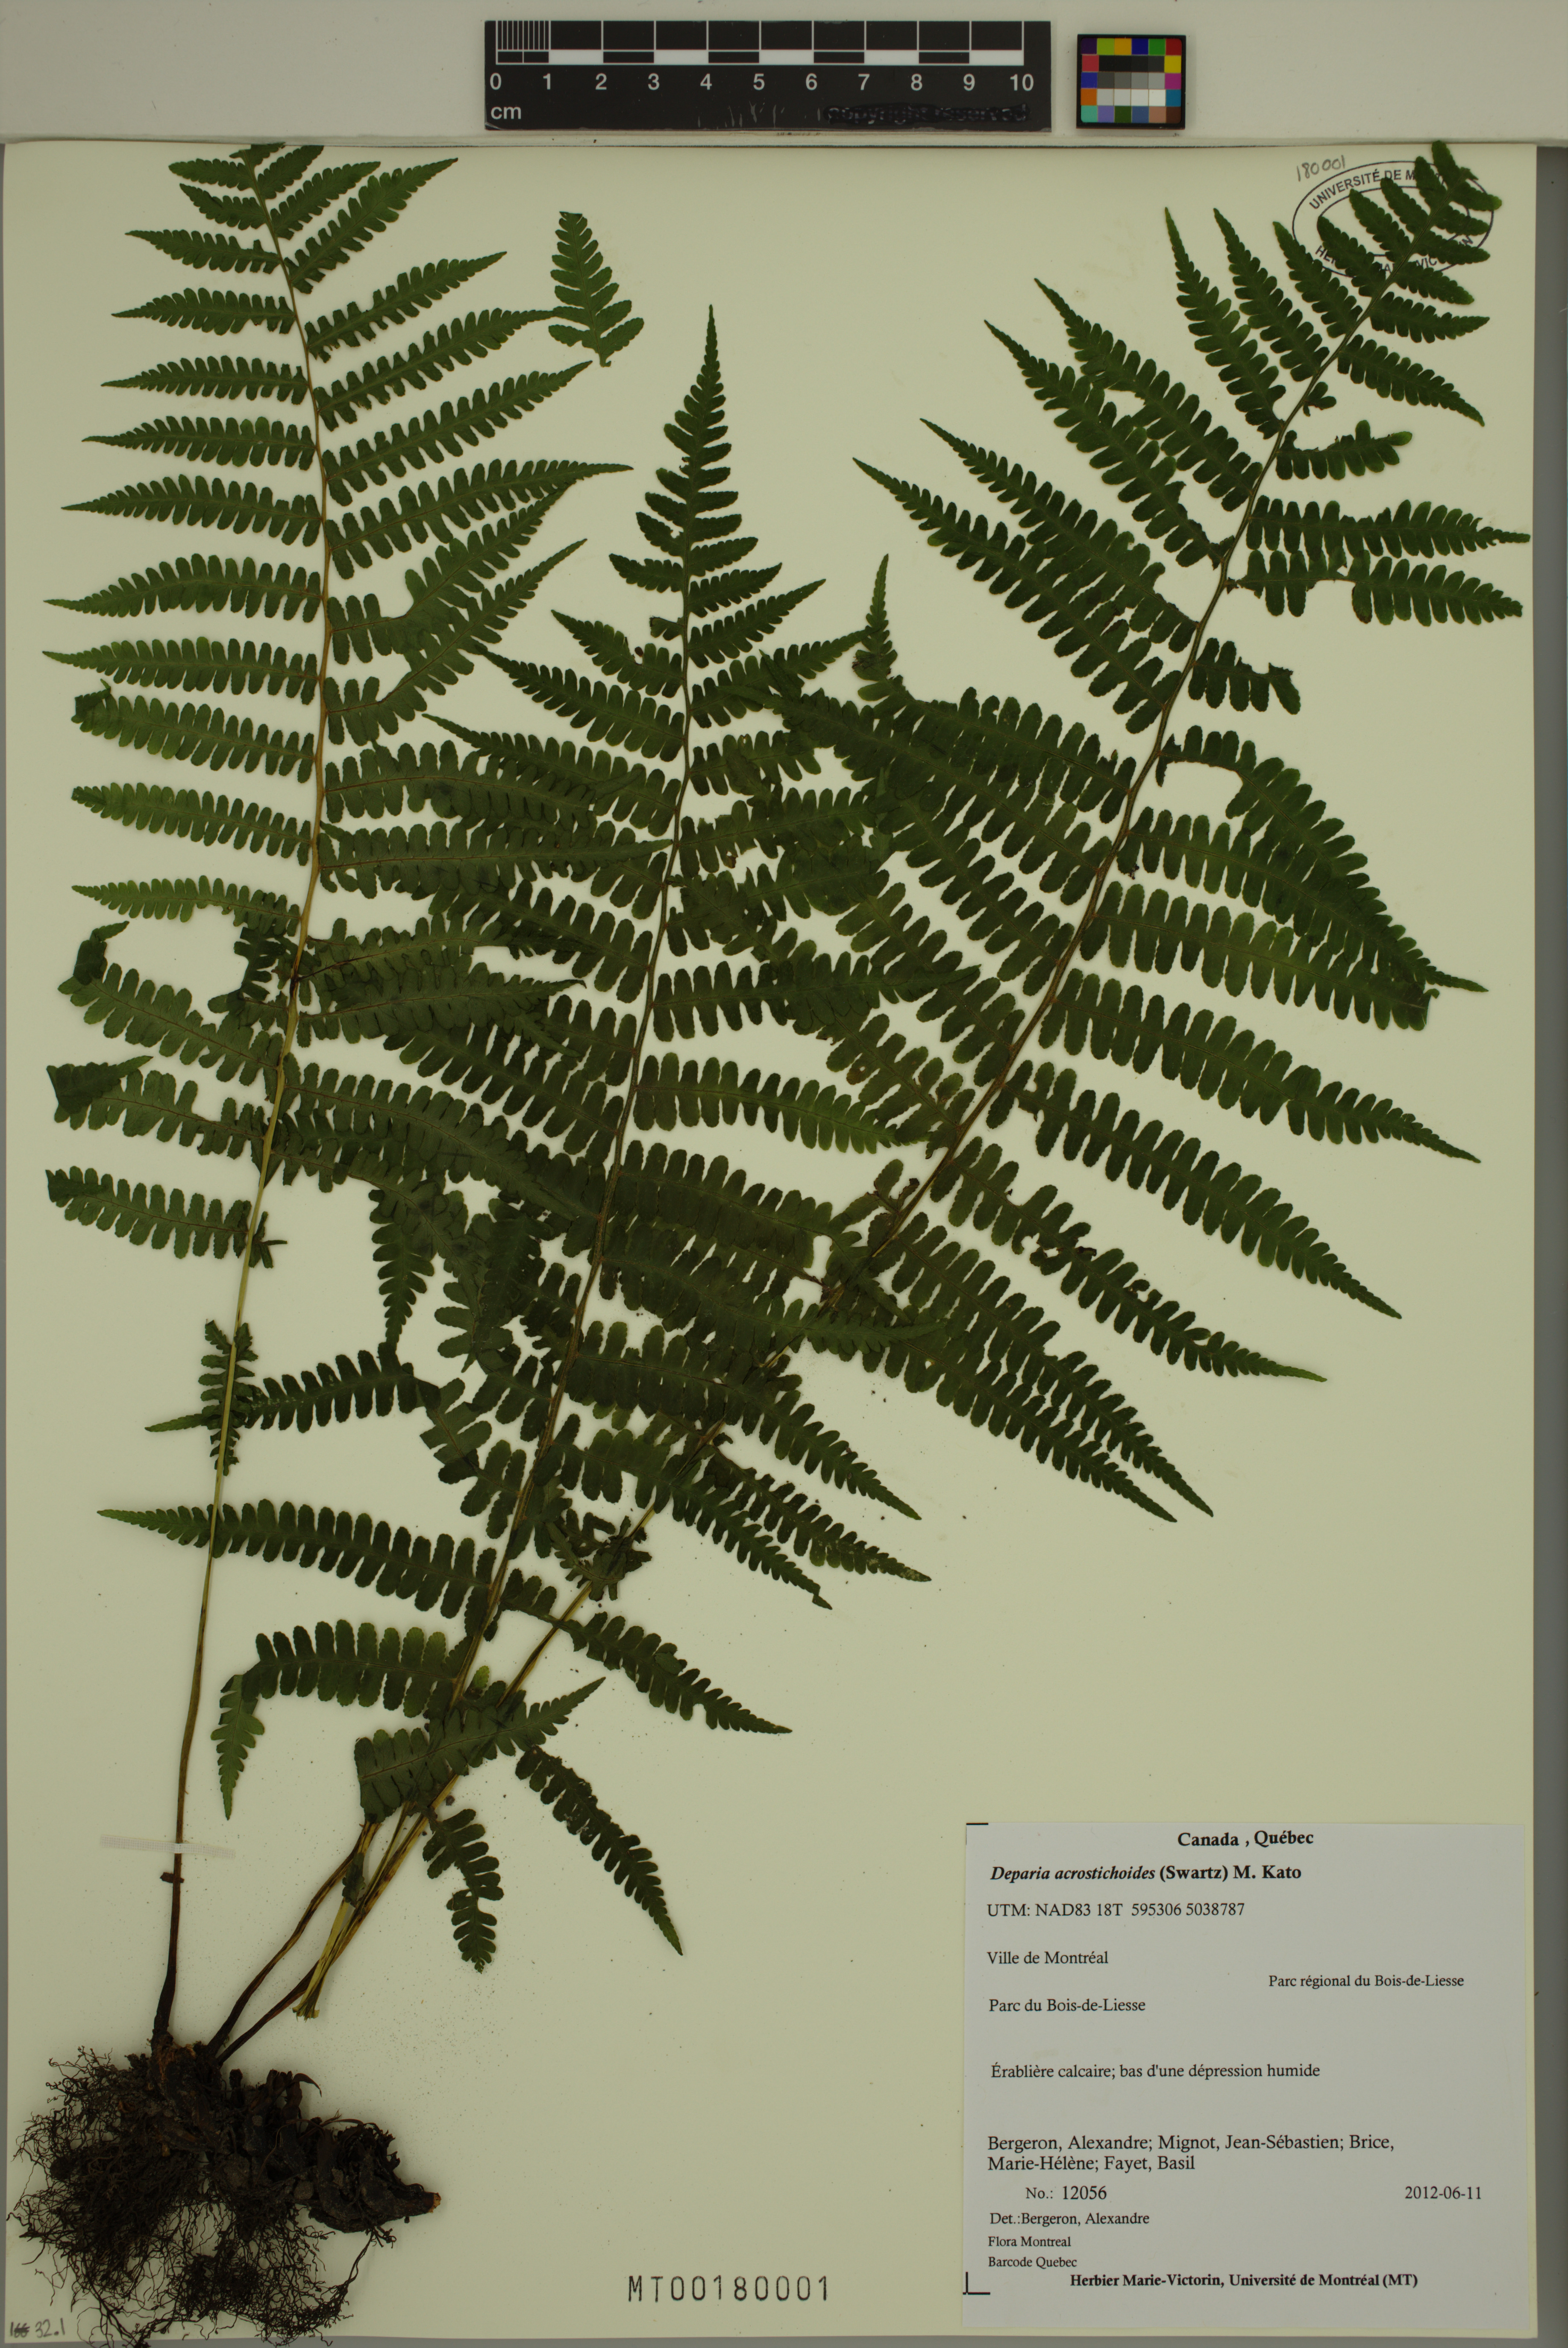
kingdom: Plantae
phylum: Tracheophyta
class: Polypodiopsida
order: Polypodiales
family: Athyriaceae
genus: Deparia
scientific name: Deparia acrostichoides
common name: Silver false spleenwort
